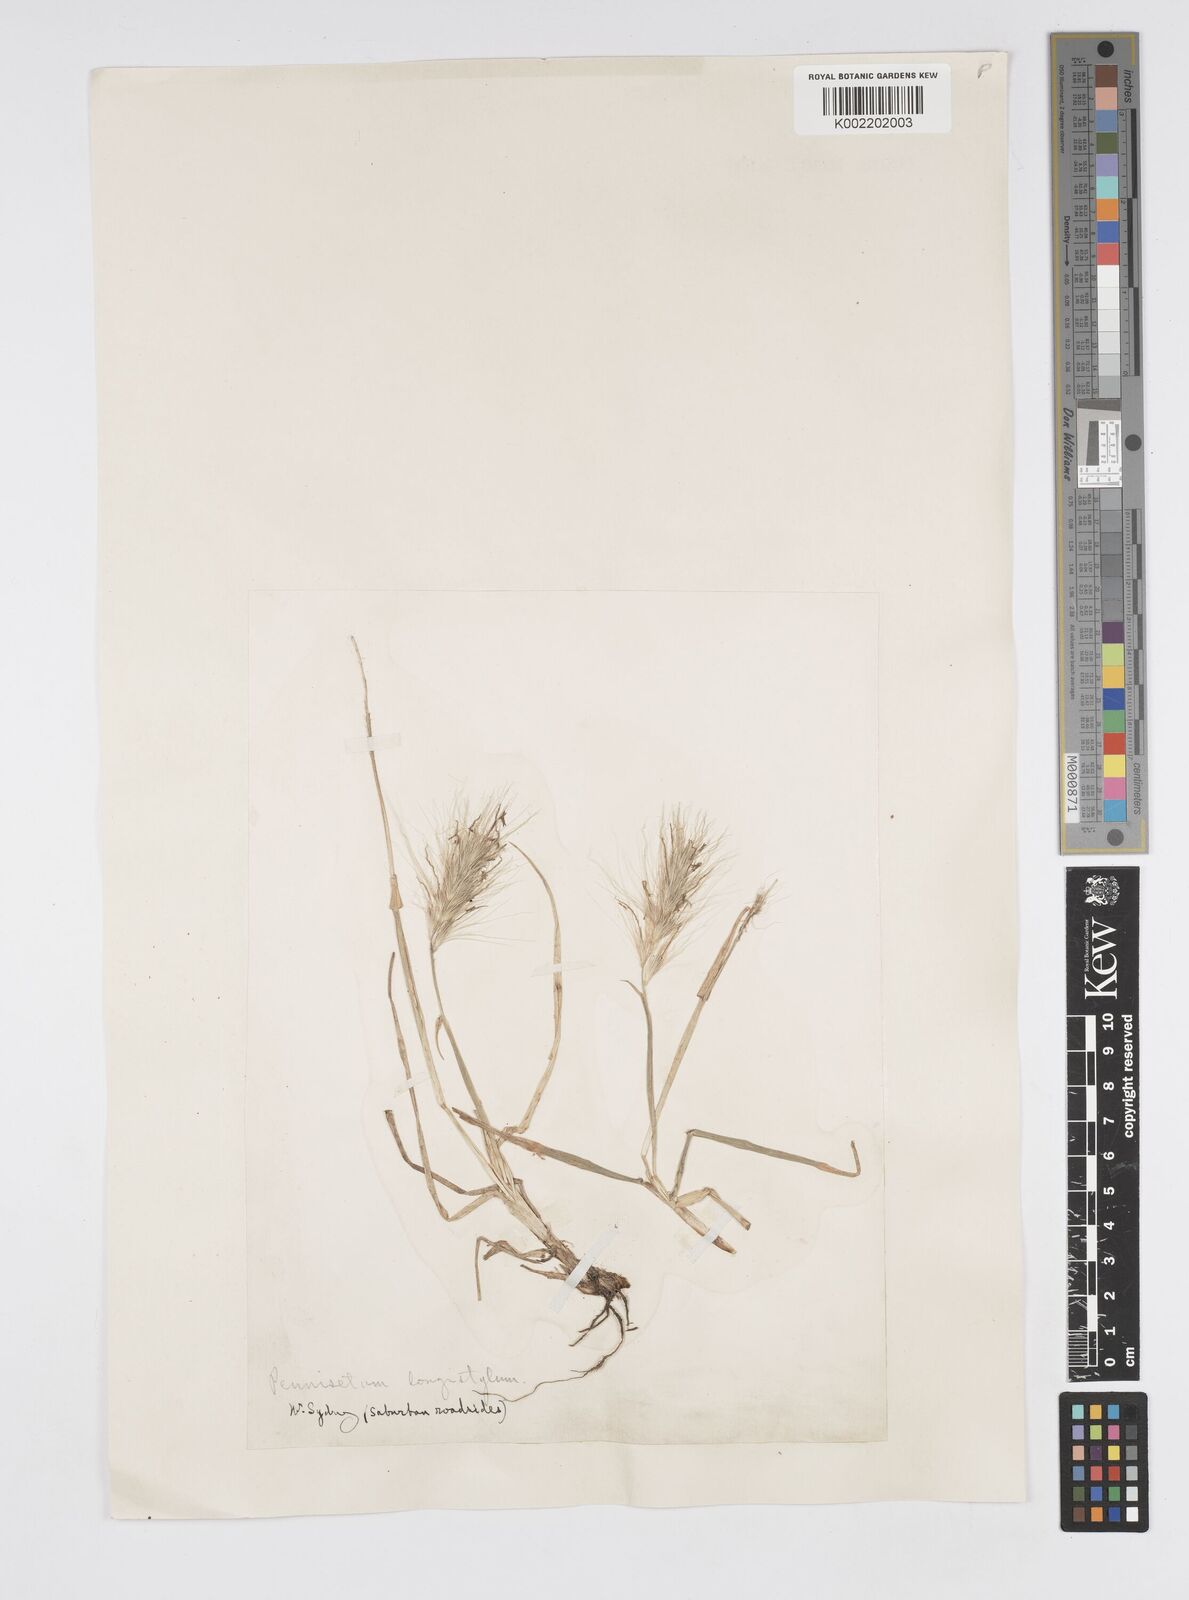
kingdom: Plantae
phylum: Tracheophyta
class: Liliopsida
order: Poales
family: Poaceae
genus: Cenchrus
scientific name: Cenchrus longisetus
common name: Feathertop
